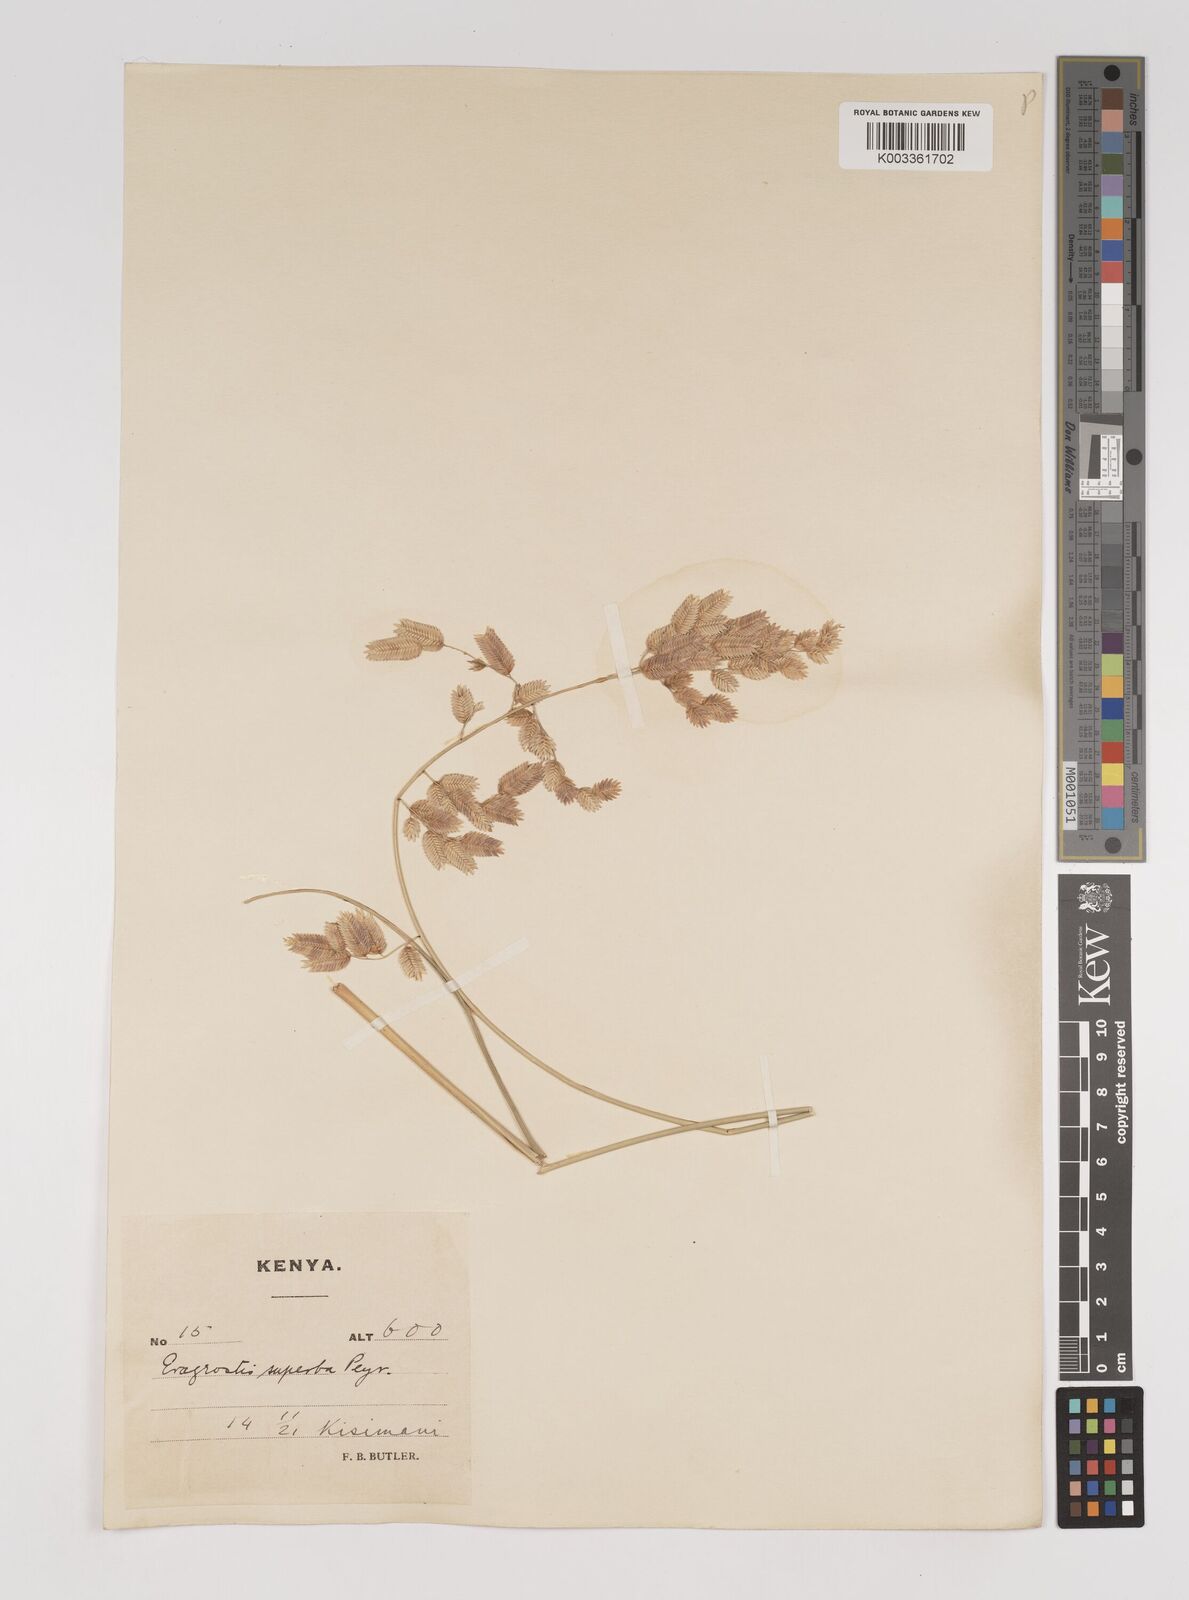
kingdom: Plantae
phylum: Tracheophyta
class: Liliopsida
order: Poales
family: Poaceae
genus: Eragrostis
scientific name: Eragrostis superba
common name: Wilman lovegrass
